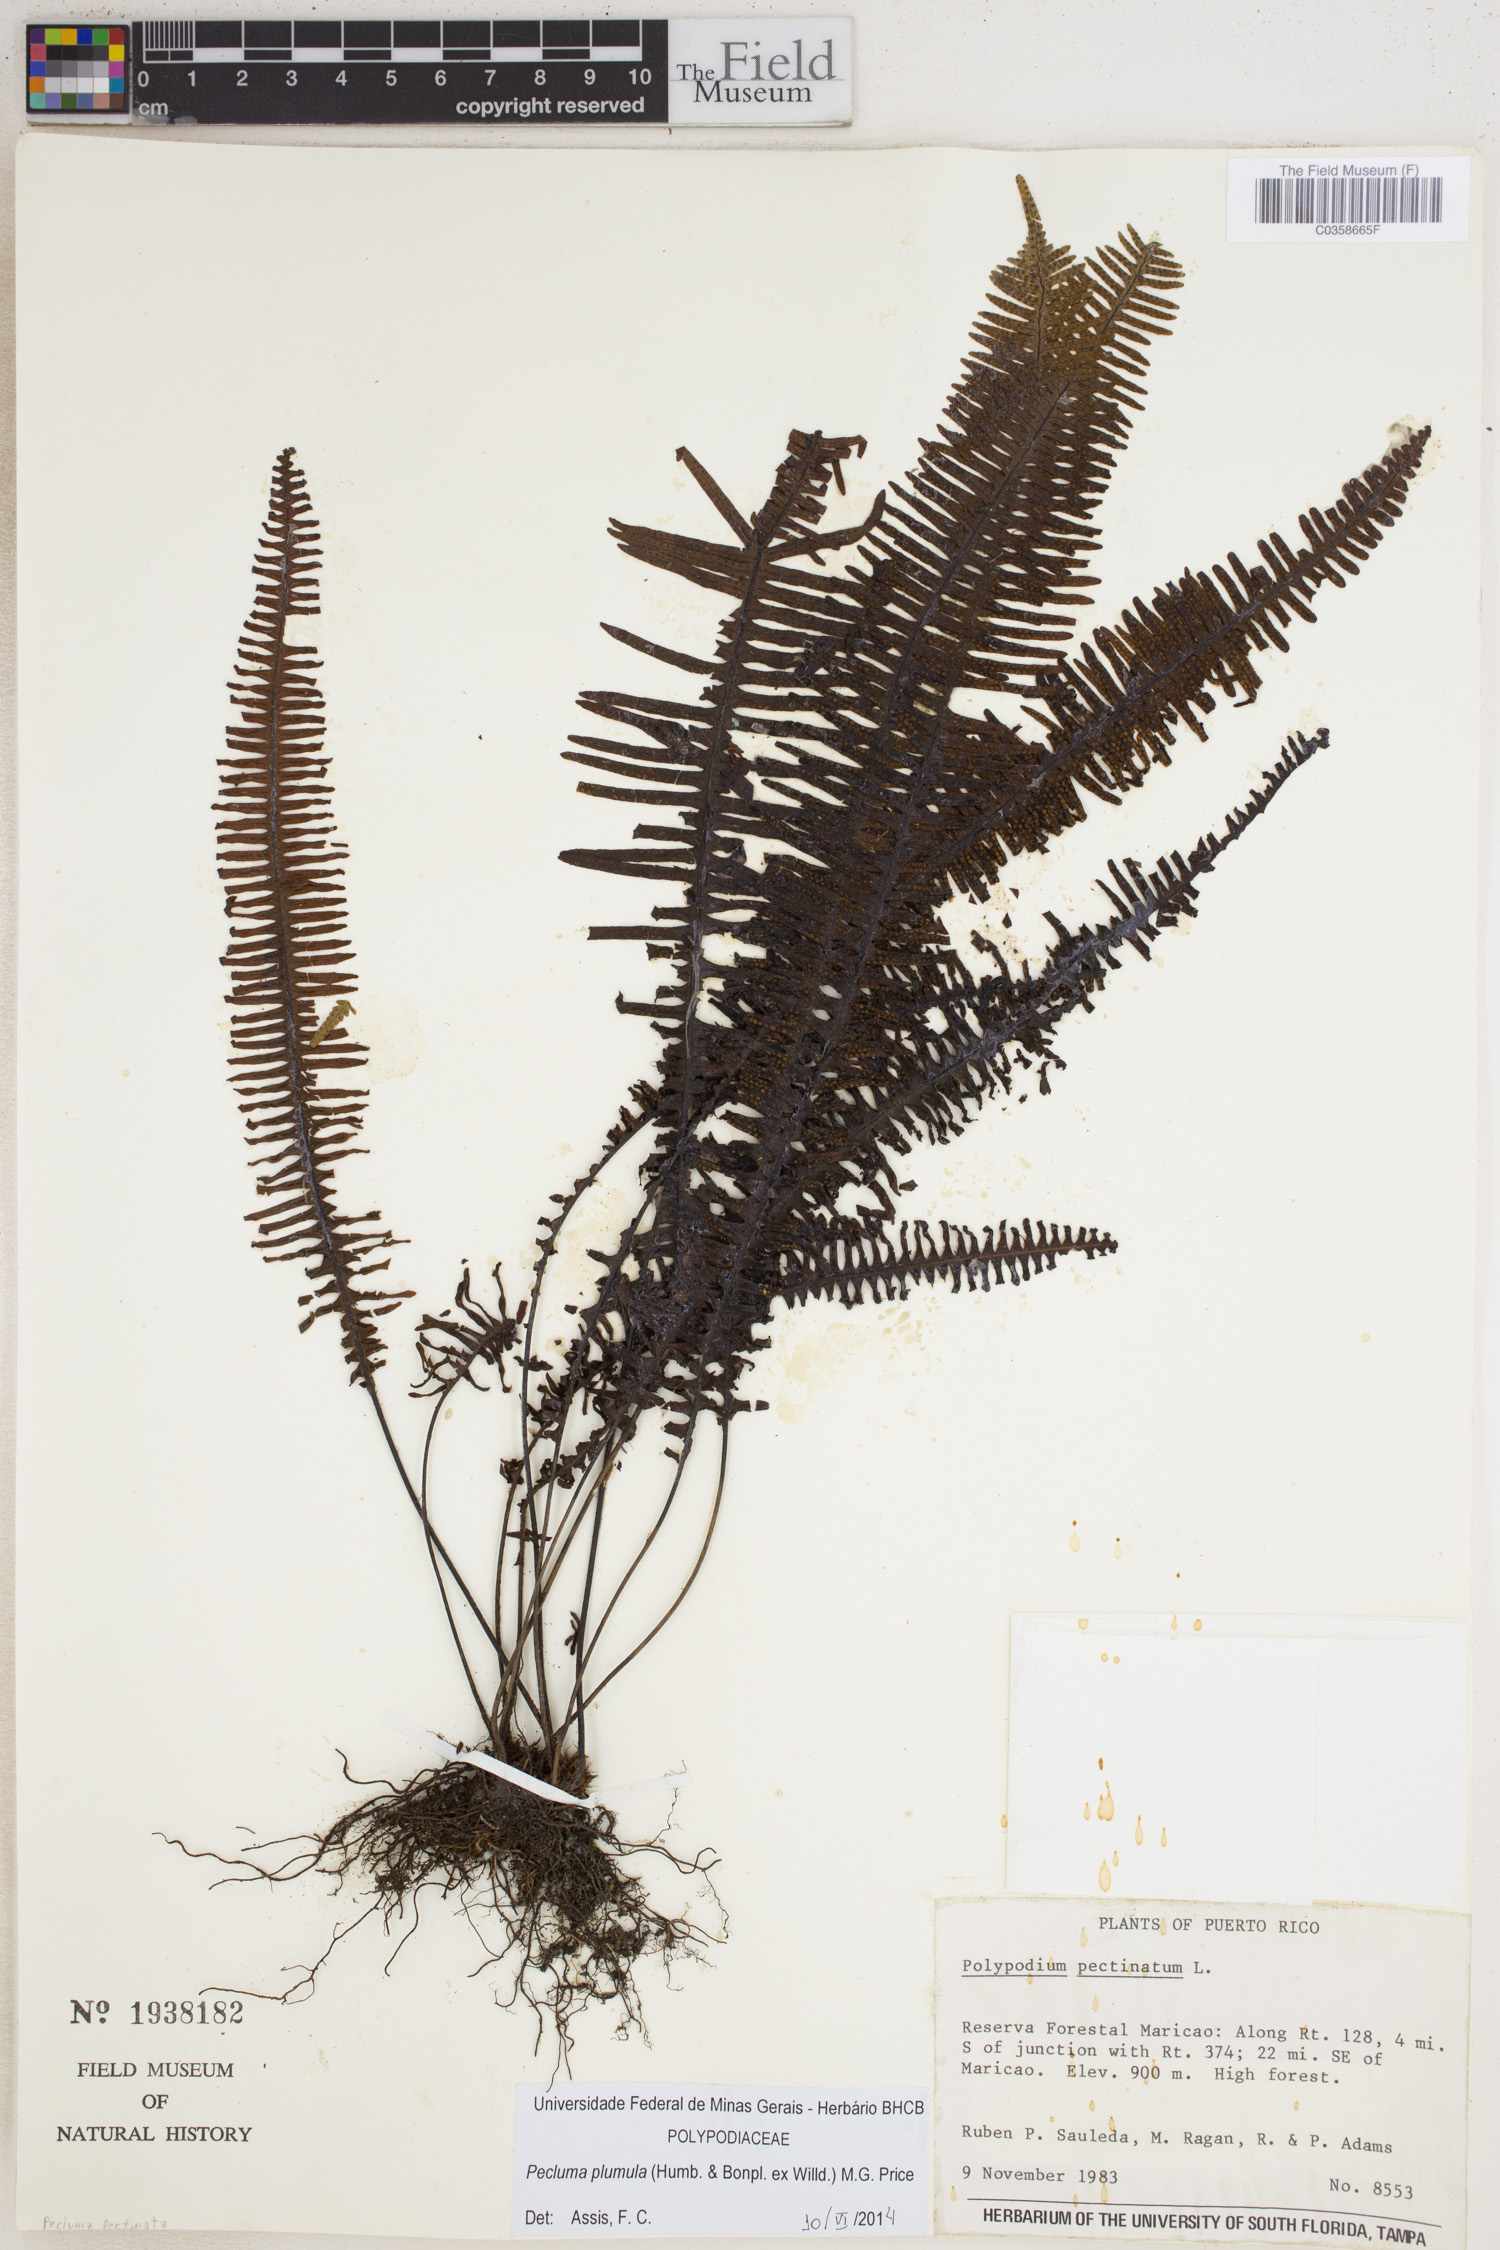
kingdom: Plantae
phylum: Tracheophyta
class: Polypodiopsida
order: Polypodiales
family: Polypodiaceae
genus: Pecluma
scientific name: Pecluma plumula
